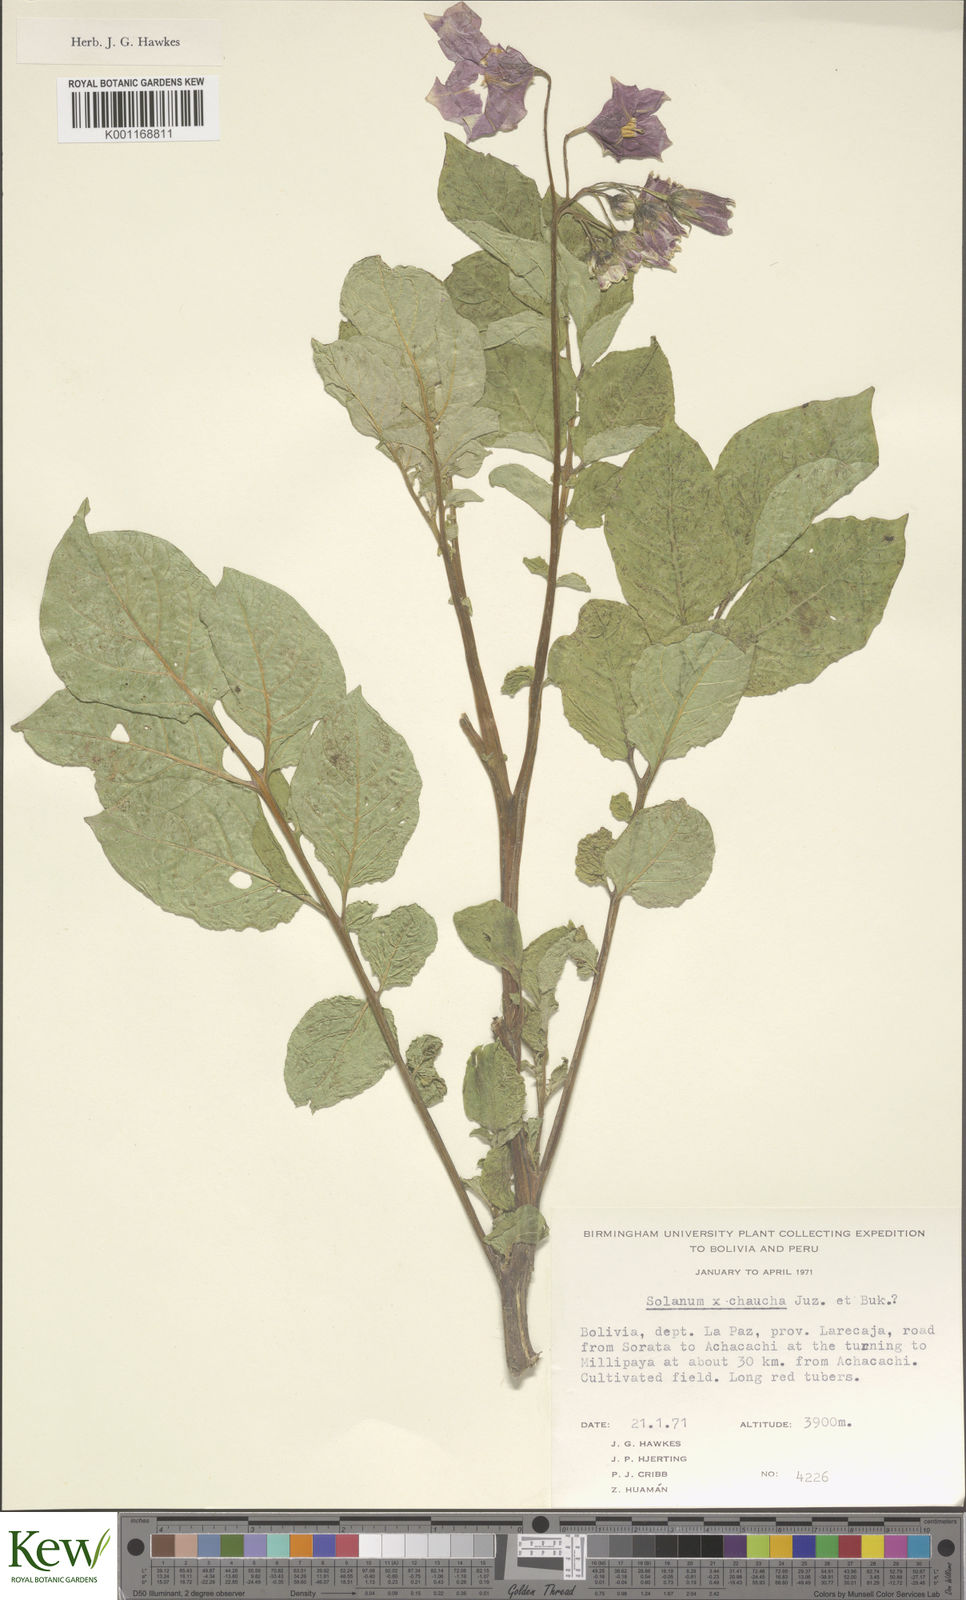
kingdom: Plantae
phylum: Tracheophyta
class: Magnoliopsida
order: Solanales
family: Solanaceae
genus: Solanum
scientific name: Solanum chaucha
